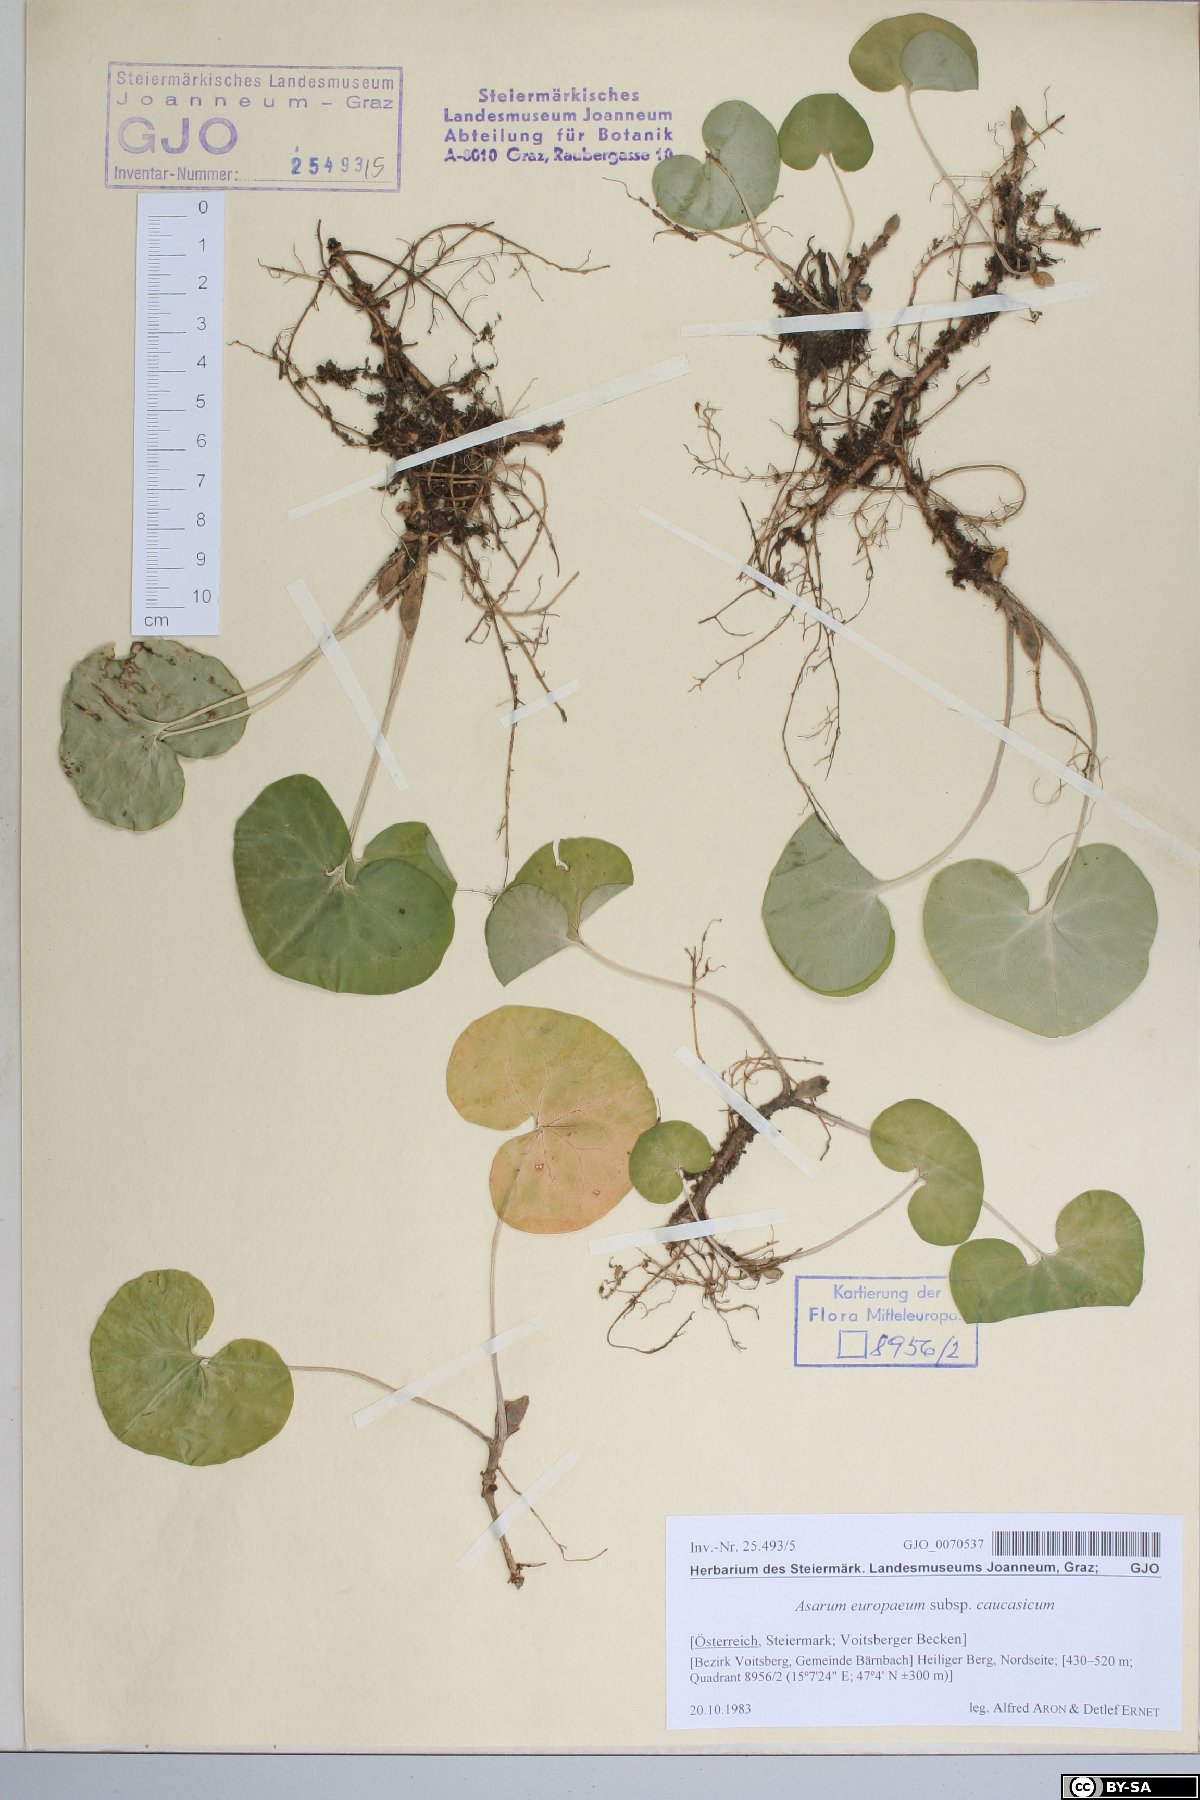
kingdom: Plantae
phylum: Tracheophyta
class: Magnoliopsida
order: Piperales
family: Aristolochiaceae
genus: Asarum
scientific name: Asarum europaeum
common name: Asarabacca
